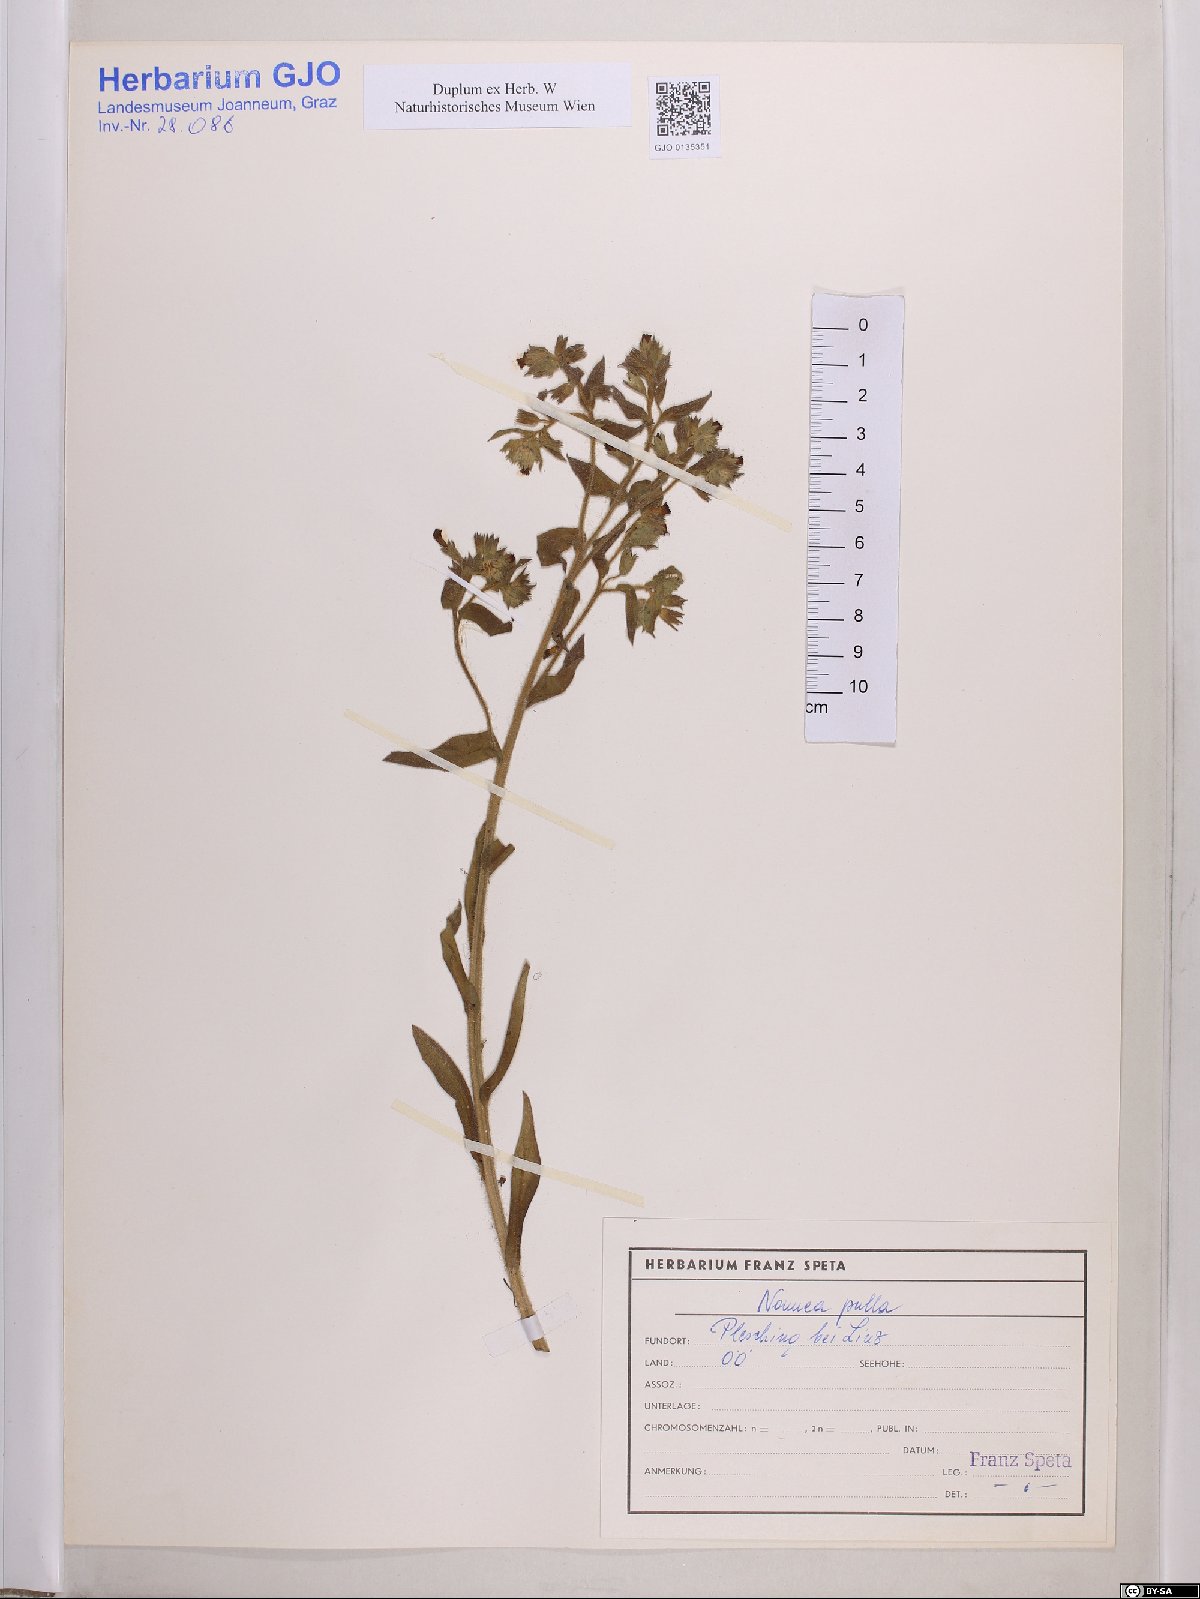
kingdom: Plantae
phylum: Tracheophyta
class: Magnoliopsida
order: Boraginales
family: Boraginaceae
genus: Nonea
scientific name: Nonea pulla
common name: Brown nonea
